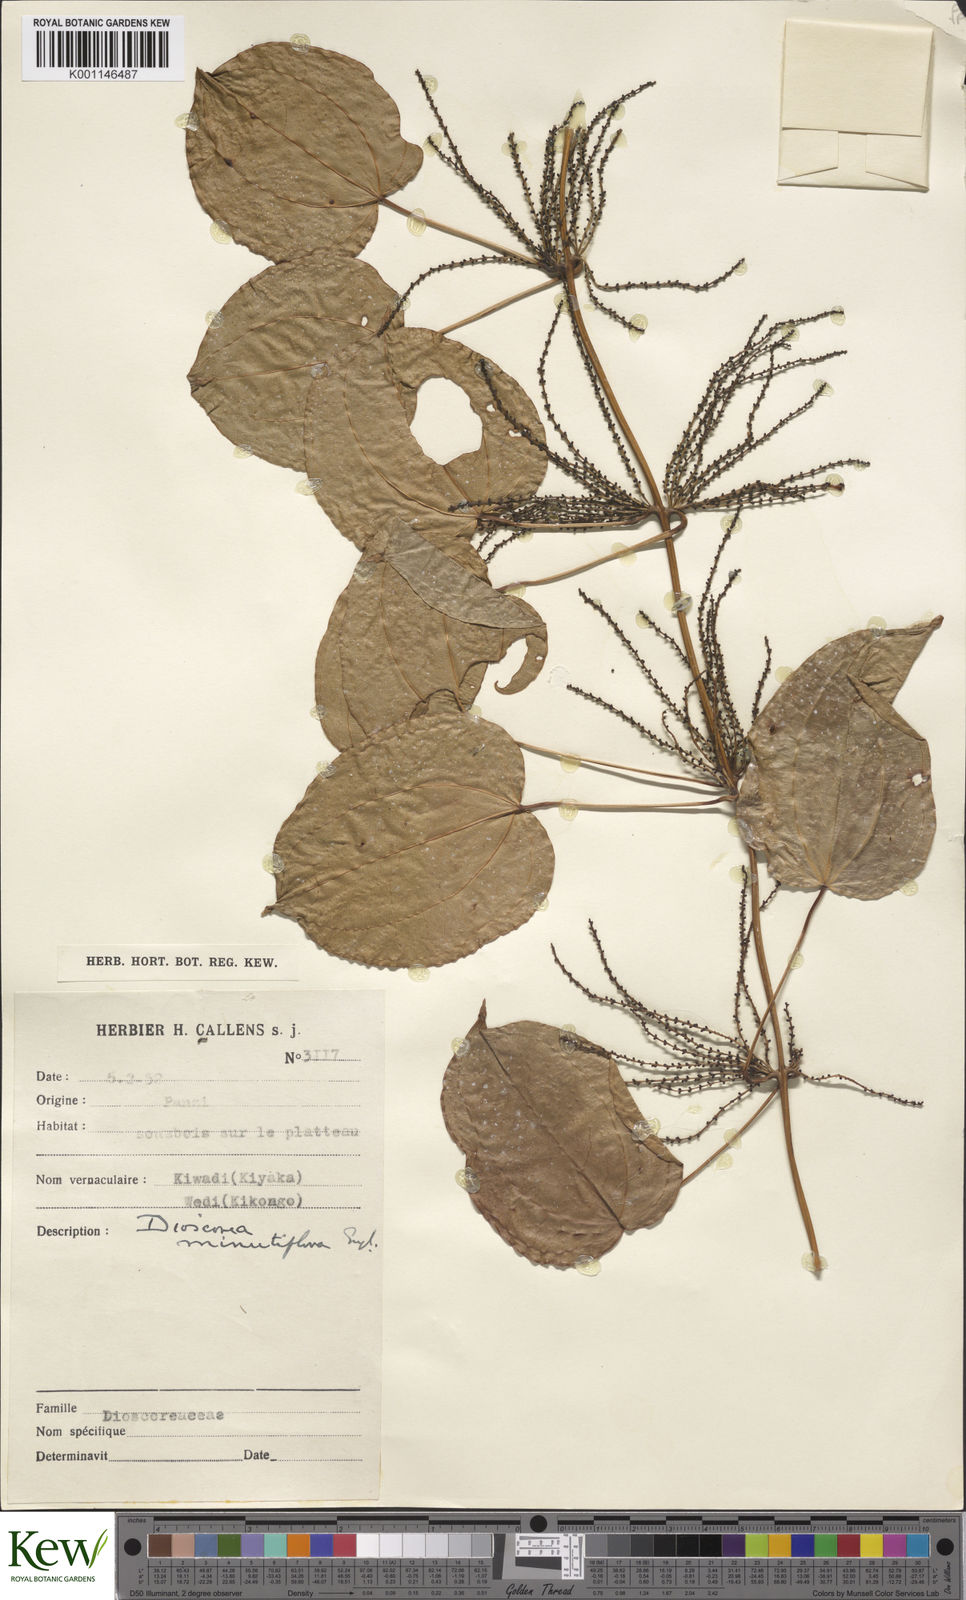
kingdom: Plantae
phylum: Tracheophyta
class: Liliopsida
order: Dioscoreales
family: Dioscoreaceae
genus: Dioscorea
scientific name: Dioscorea minutiflora
